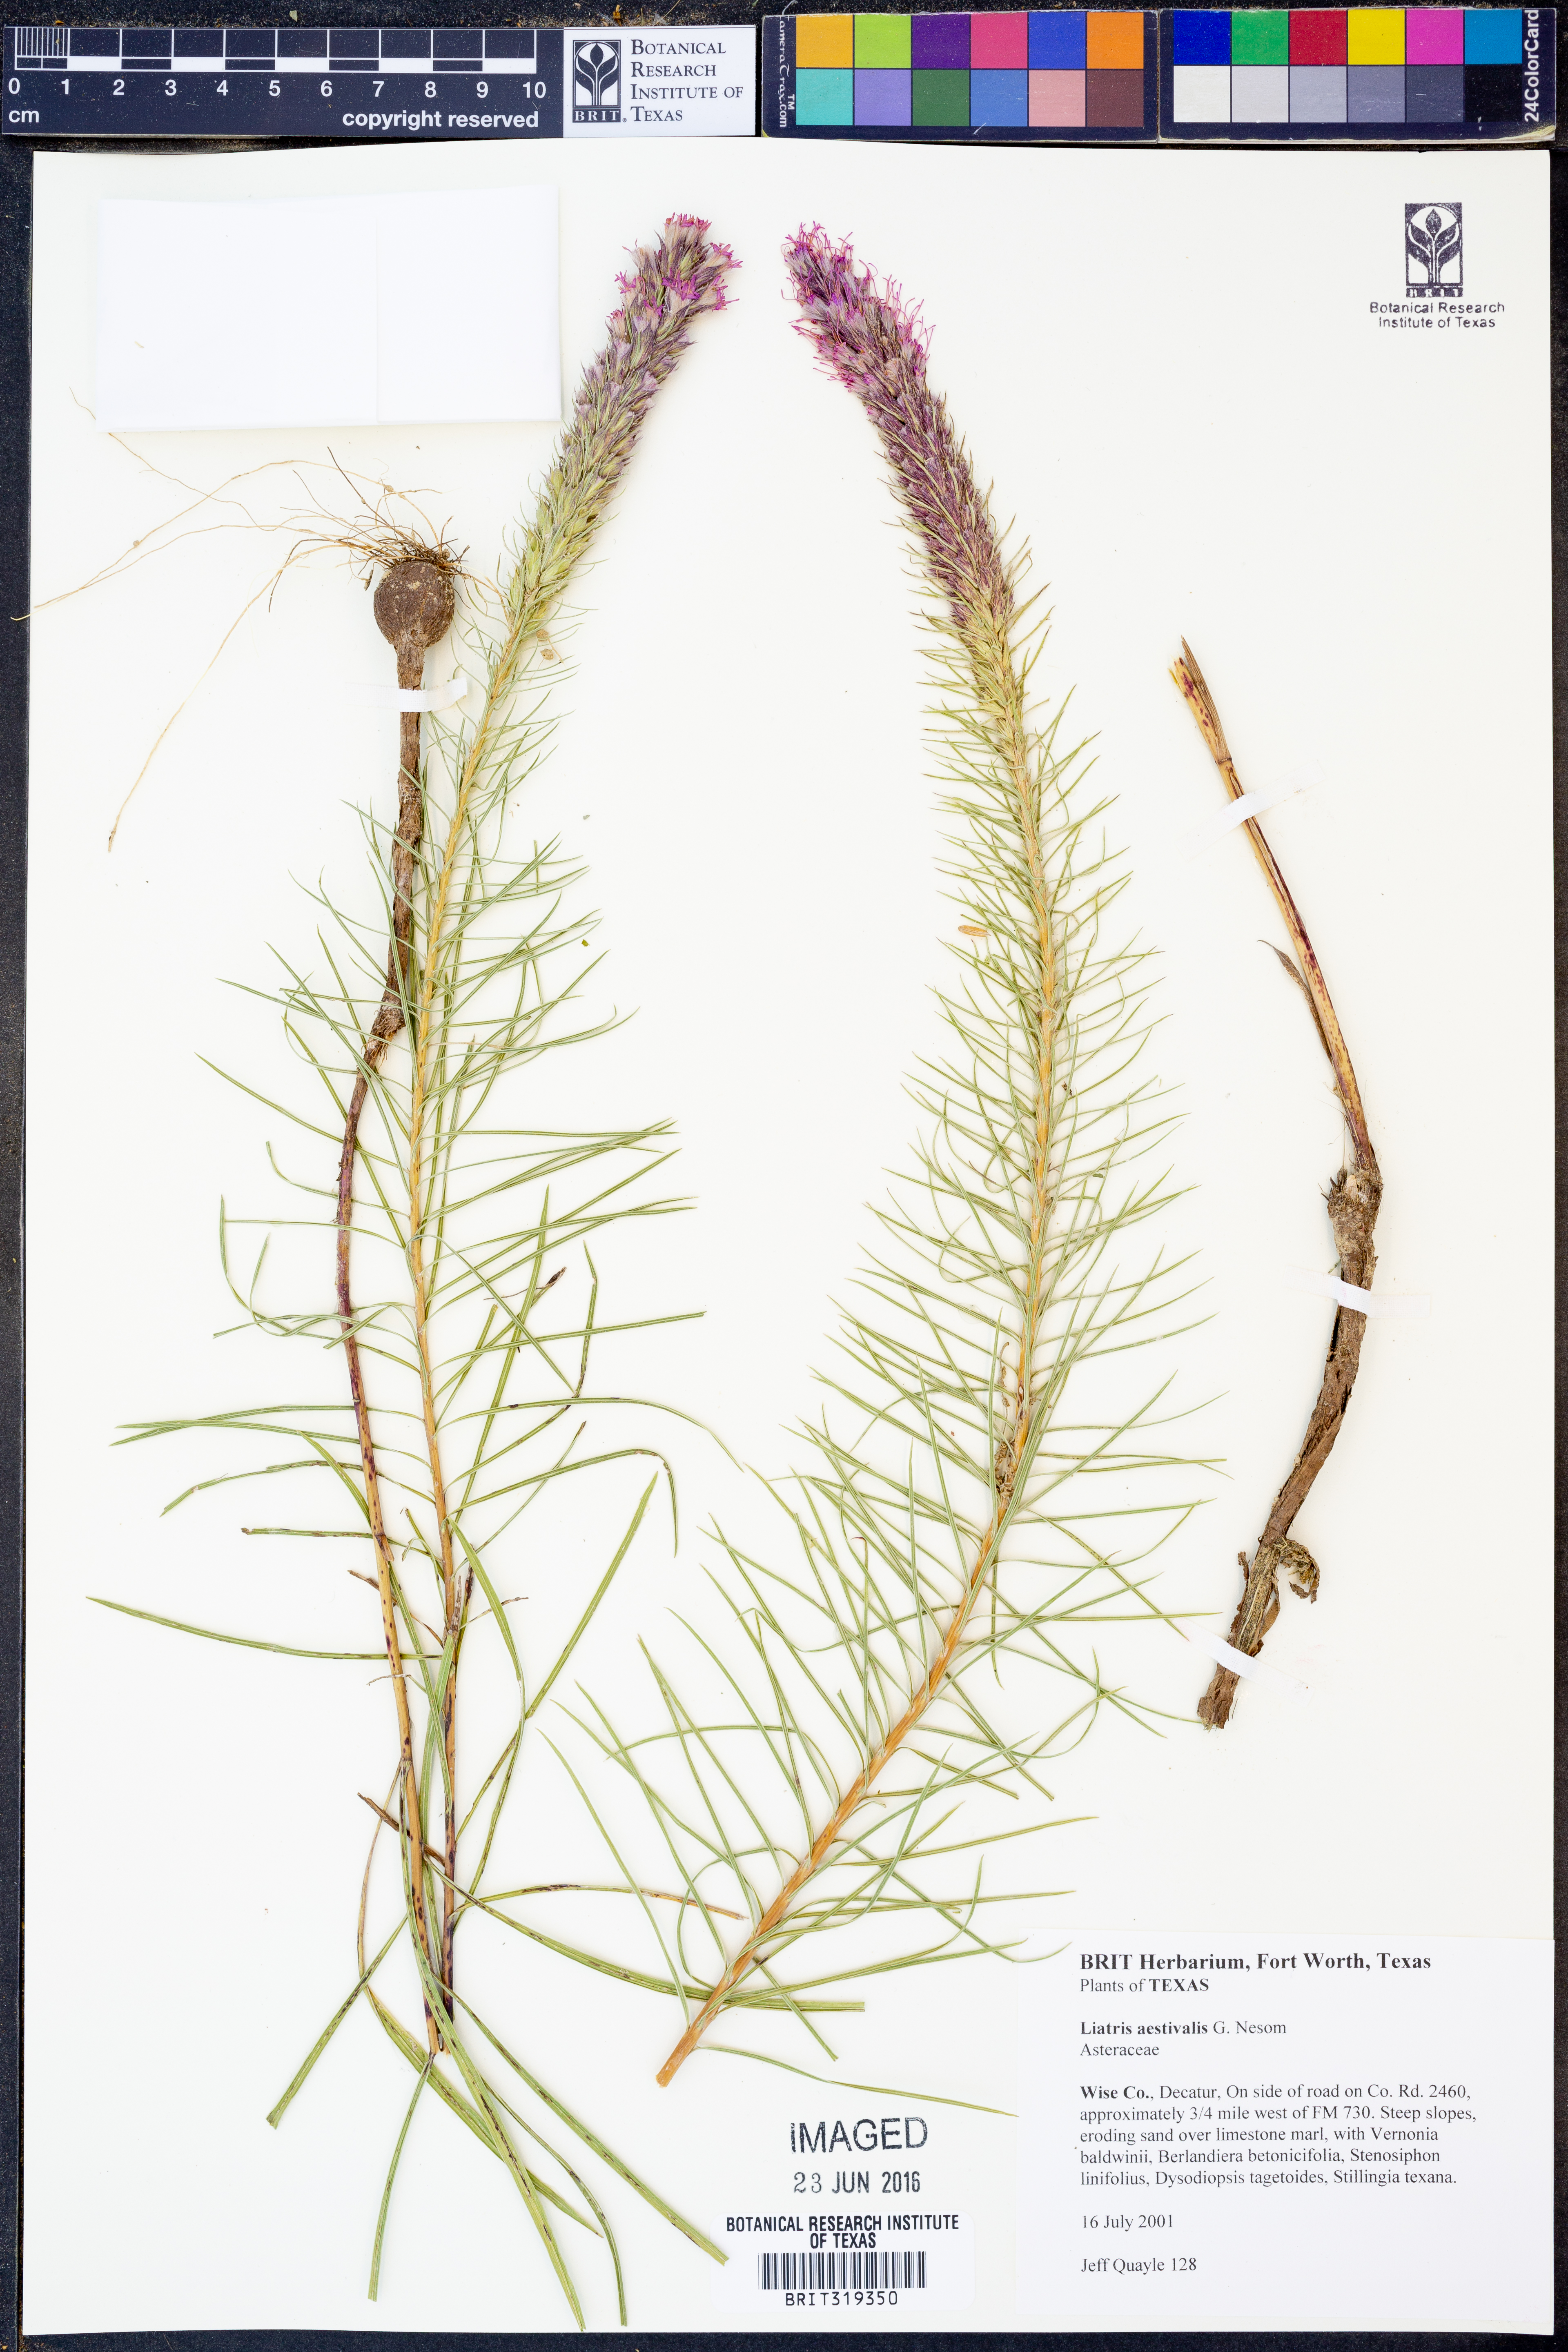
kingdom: Plantae
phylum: Tracheophyta
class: Magnoliopsida
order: Asterales
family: Asteraceae
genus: Liatris
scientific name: Liatris aestivalis
